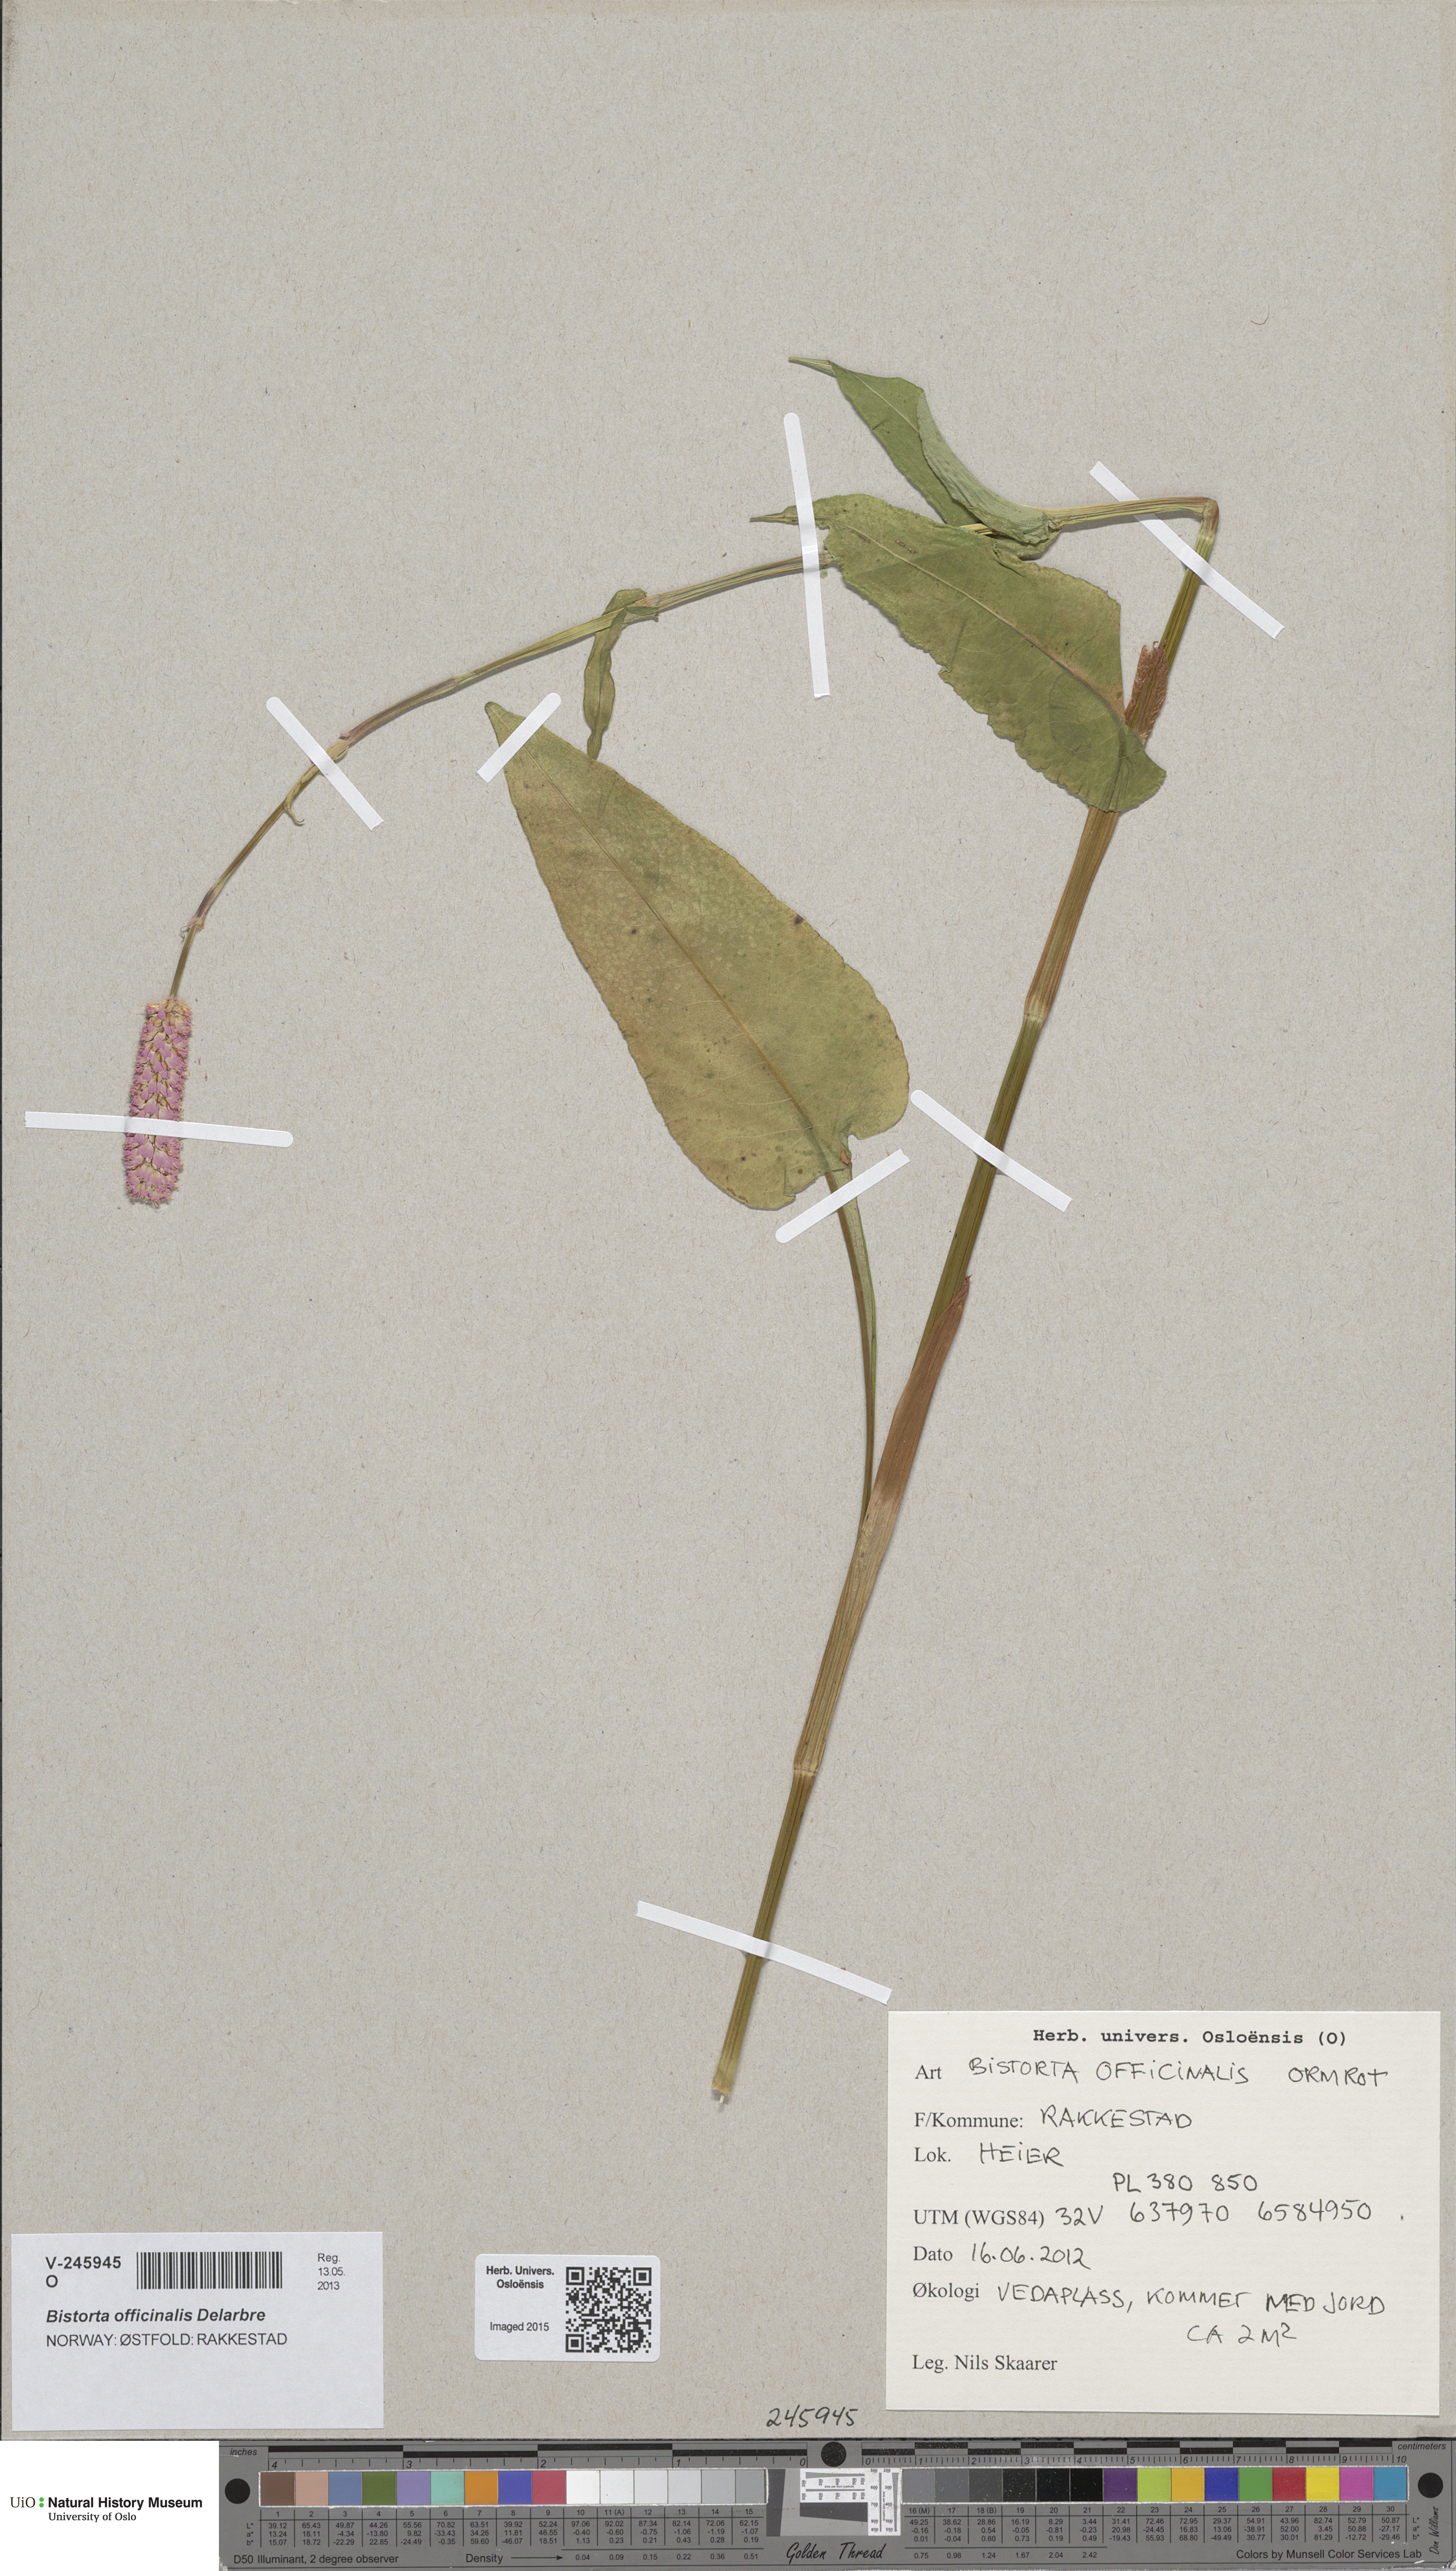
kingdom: Plantae
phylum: Tracheophyta
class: Magnoliopsida
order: Caryophyllales
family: Polygonaceae
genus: Bistorta
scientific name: Bistorta officinalis
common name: Common bistort
